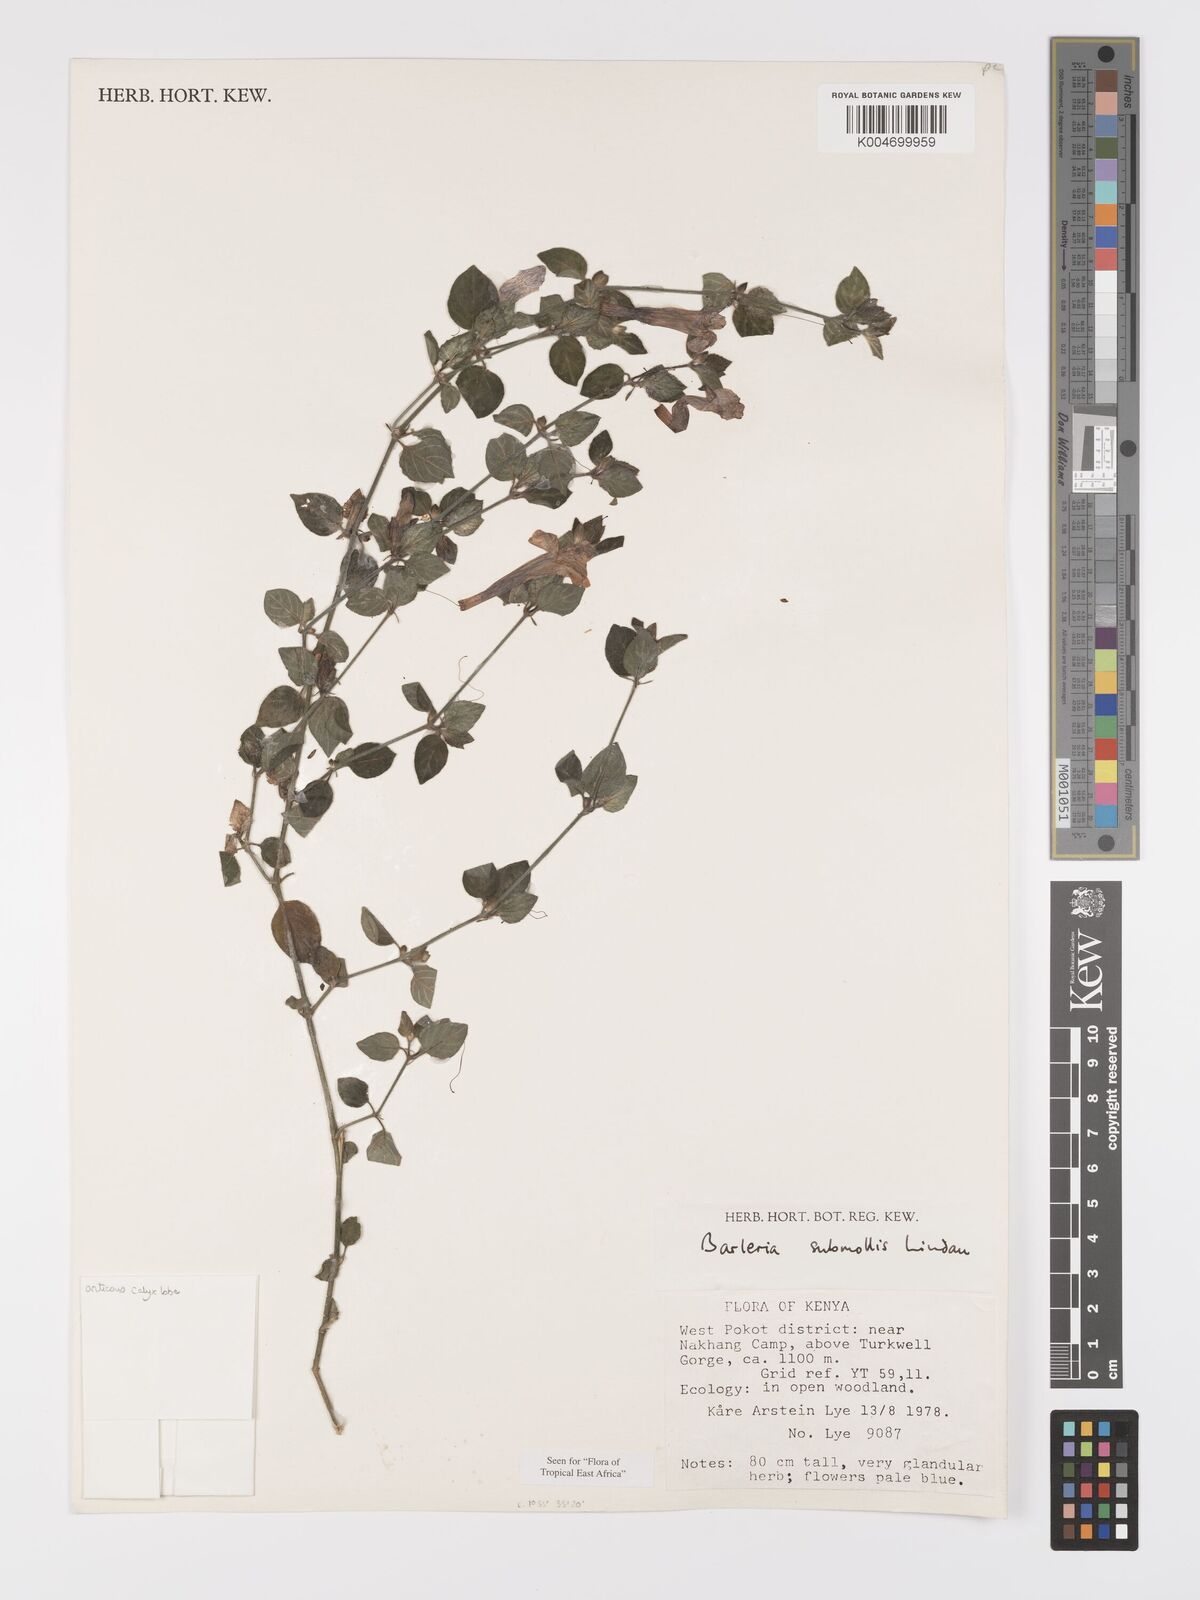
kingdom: Plantae
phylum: Tracheophyta
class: Magnoliopsida
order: Lamiales
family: Acanthaceae
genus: Barleria
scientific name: Barleria submollis
